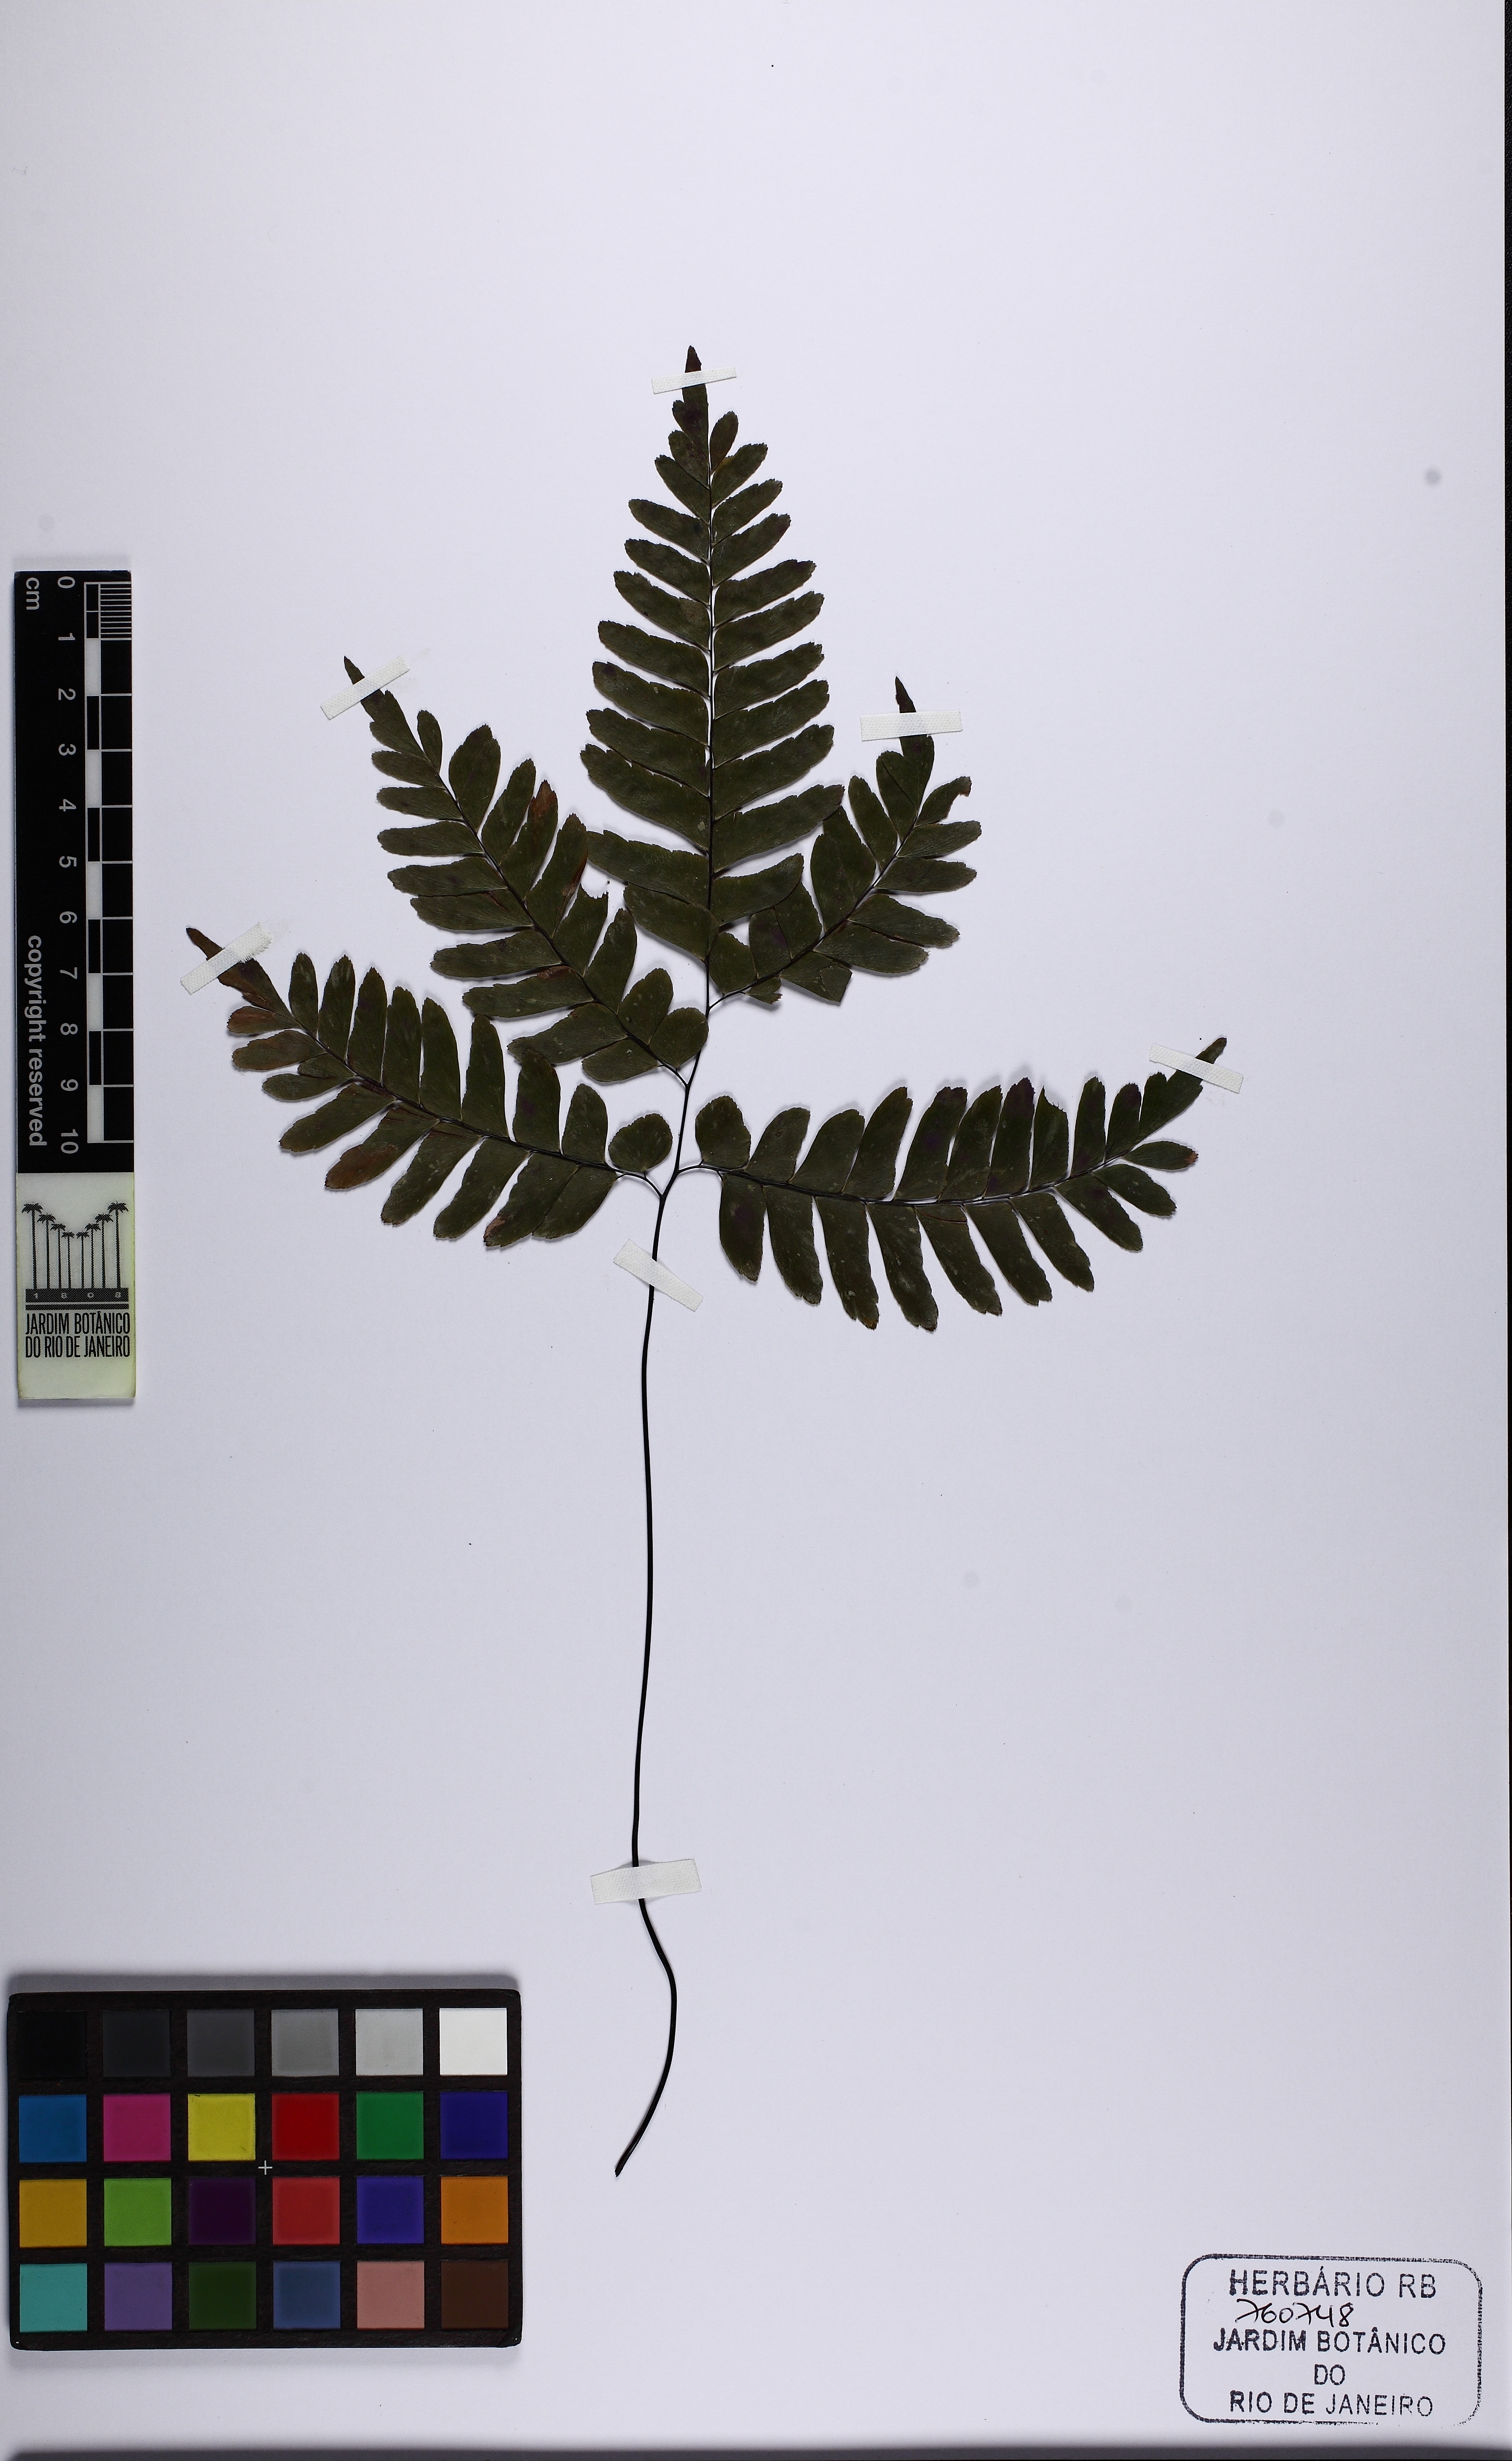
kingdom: Plantae
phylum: Tracheophyta
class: Polypodiopsida
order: Polypodiales
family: Pteridaceae
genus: Adiantum
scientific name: Adiantum glaucescens
